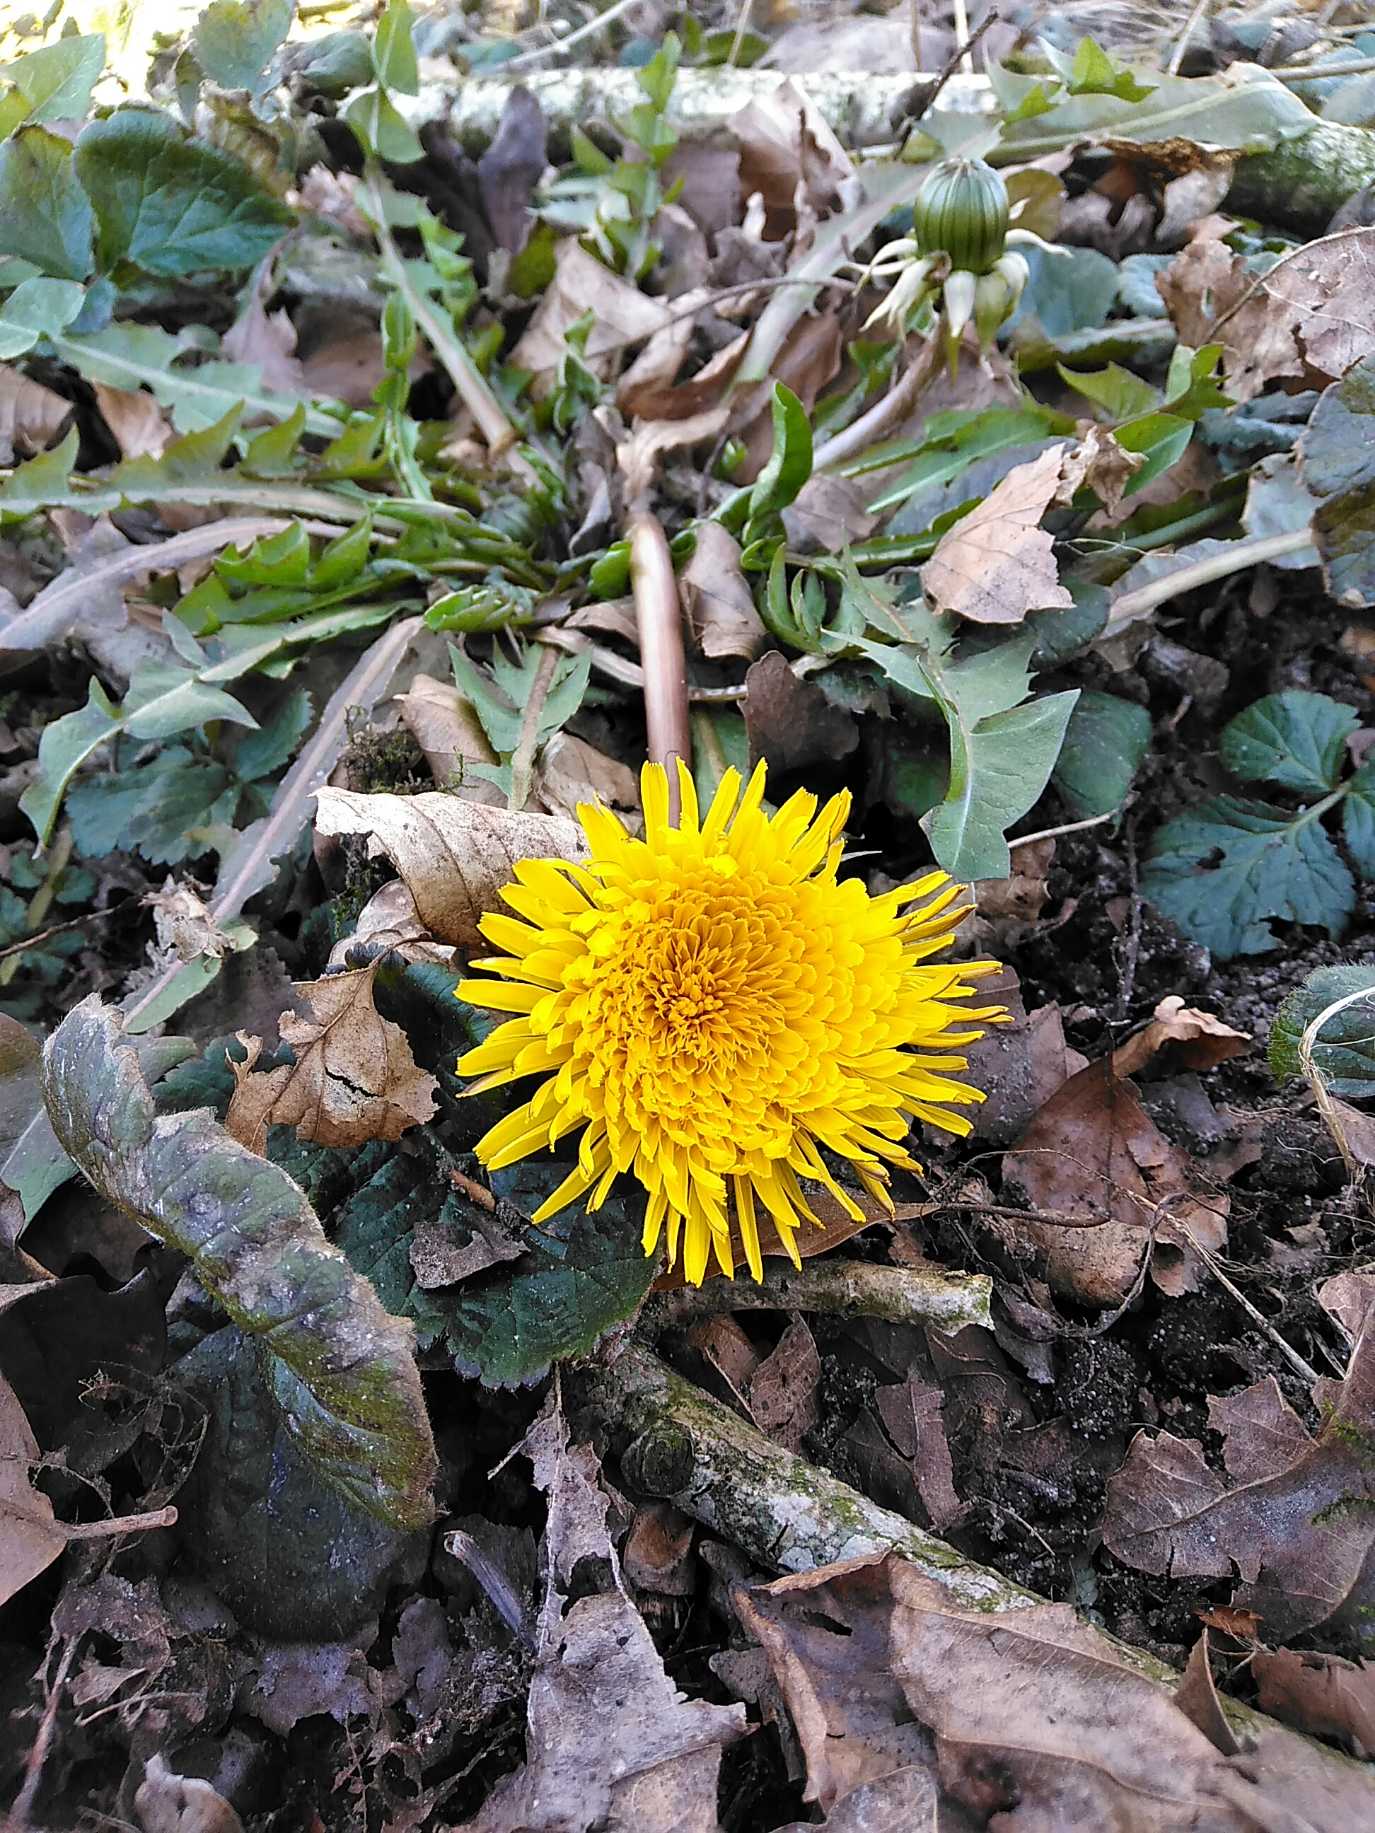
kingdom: Plantae
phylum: Tracheophyta
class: Magnoliopsida
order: Asterales
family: Asteraceae
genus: Taraxacum
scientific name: Taraxacum
